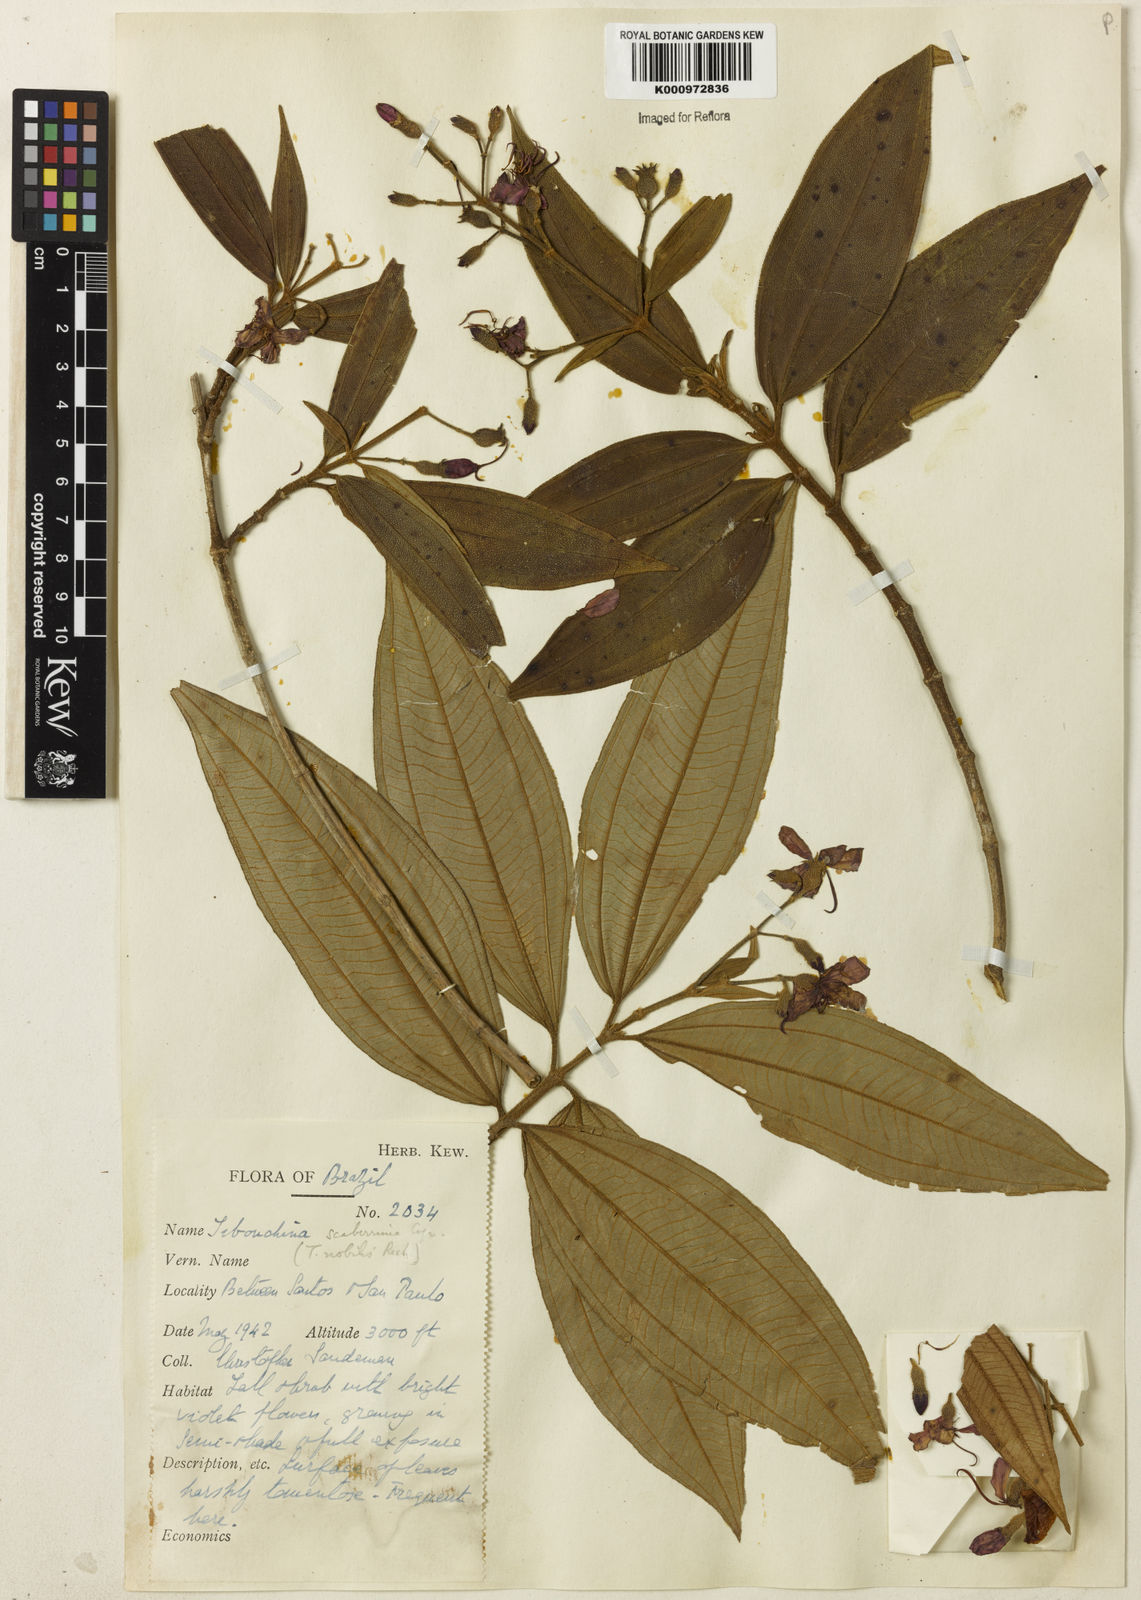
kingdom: Plantae
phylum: Tracheophyta
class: Magnoliopsida
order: Myrtales
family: Melastomataceae
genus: Pleroma
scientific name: Pleroma scaberrimum
